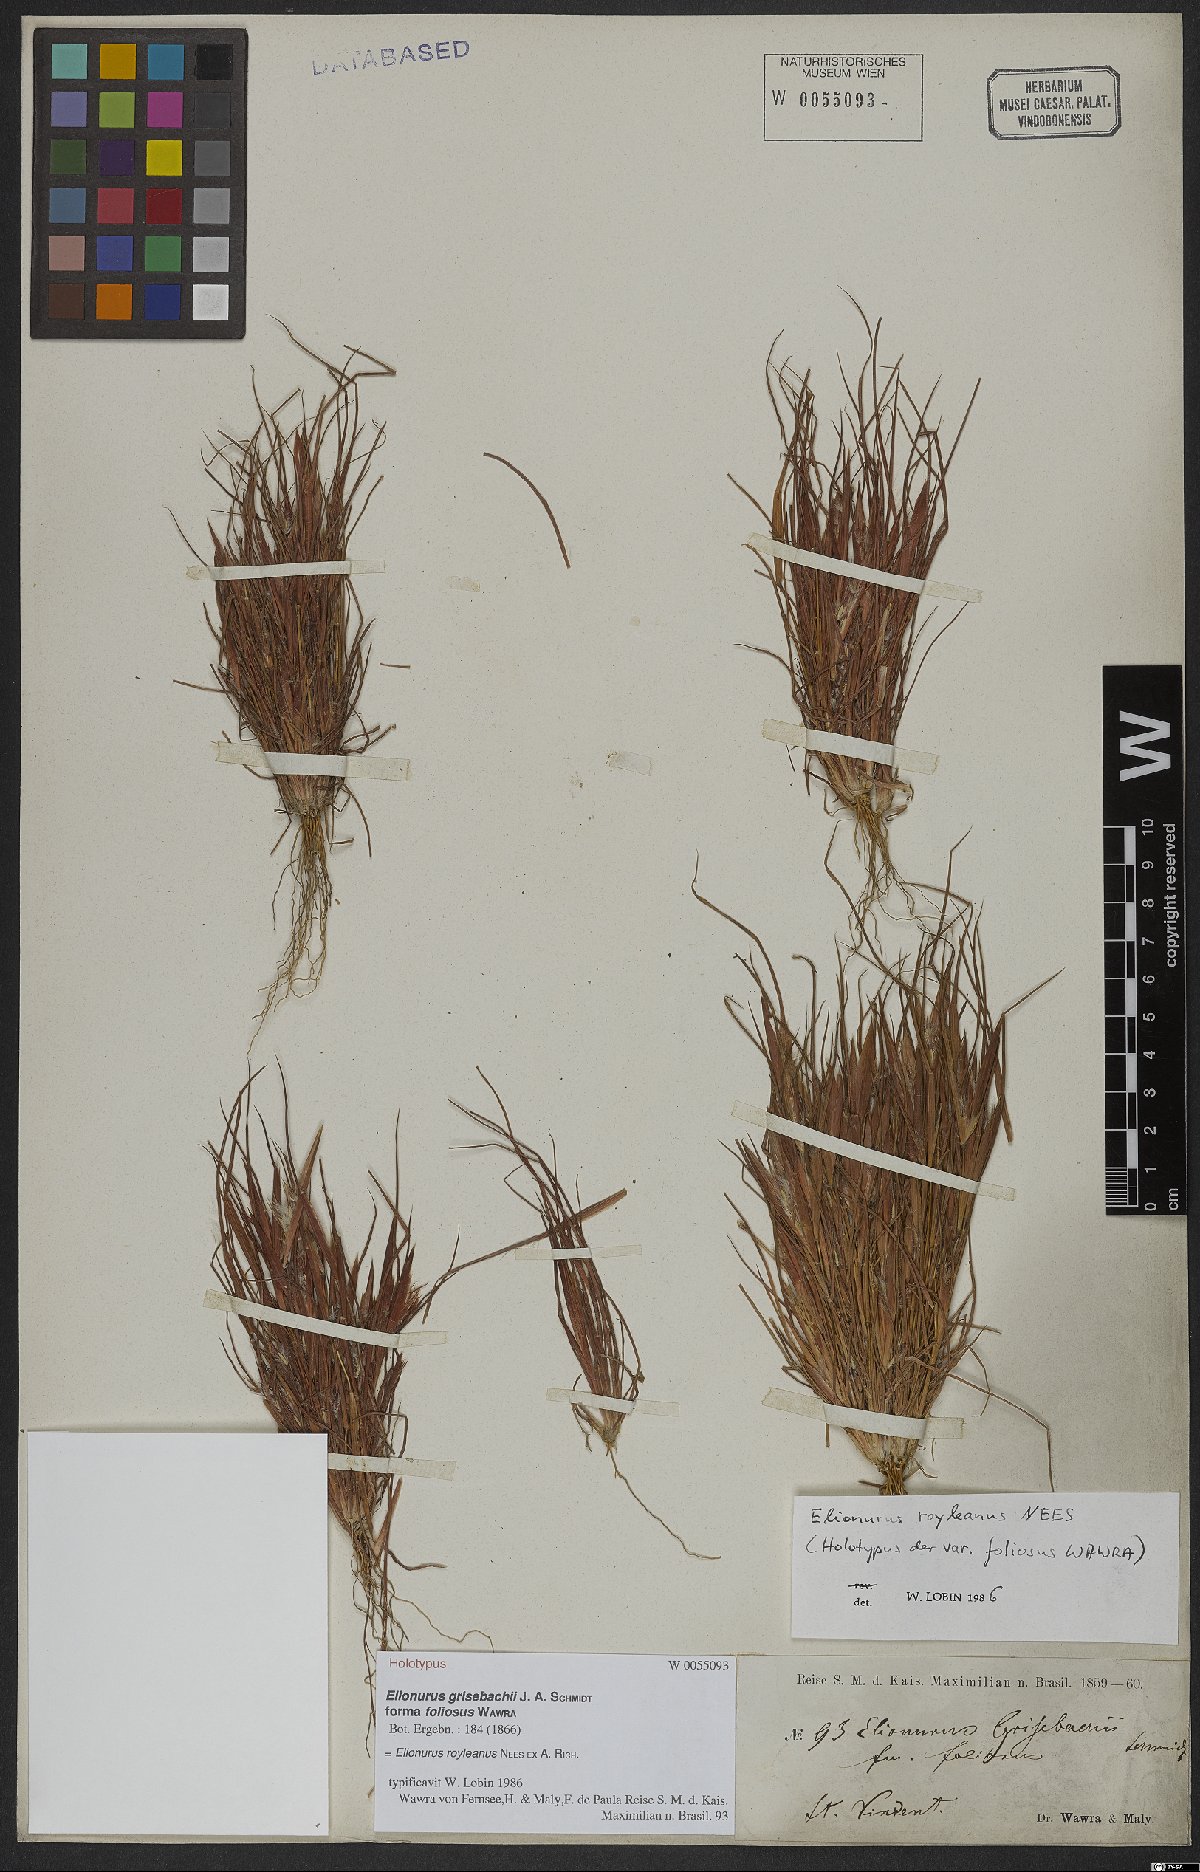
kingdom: Plantae
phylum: Tracheophyta
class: Liliopsida
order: Poales
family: Poaceae
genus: Elionurus
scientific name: Elionurus royleanus
